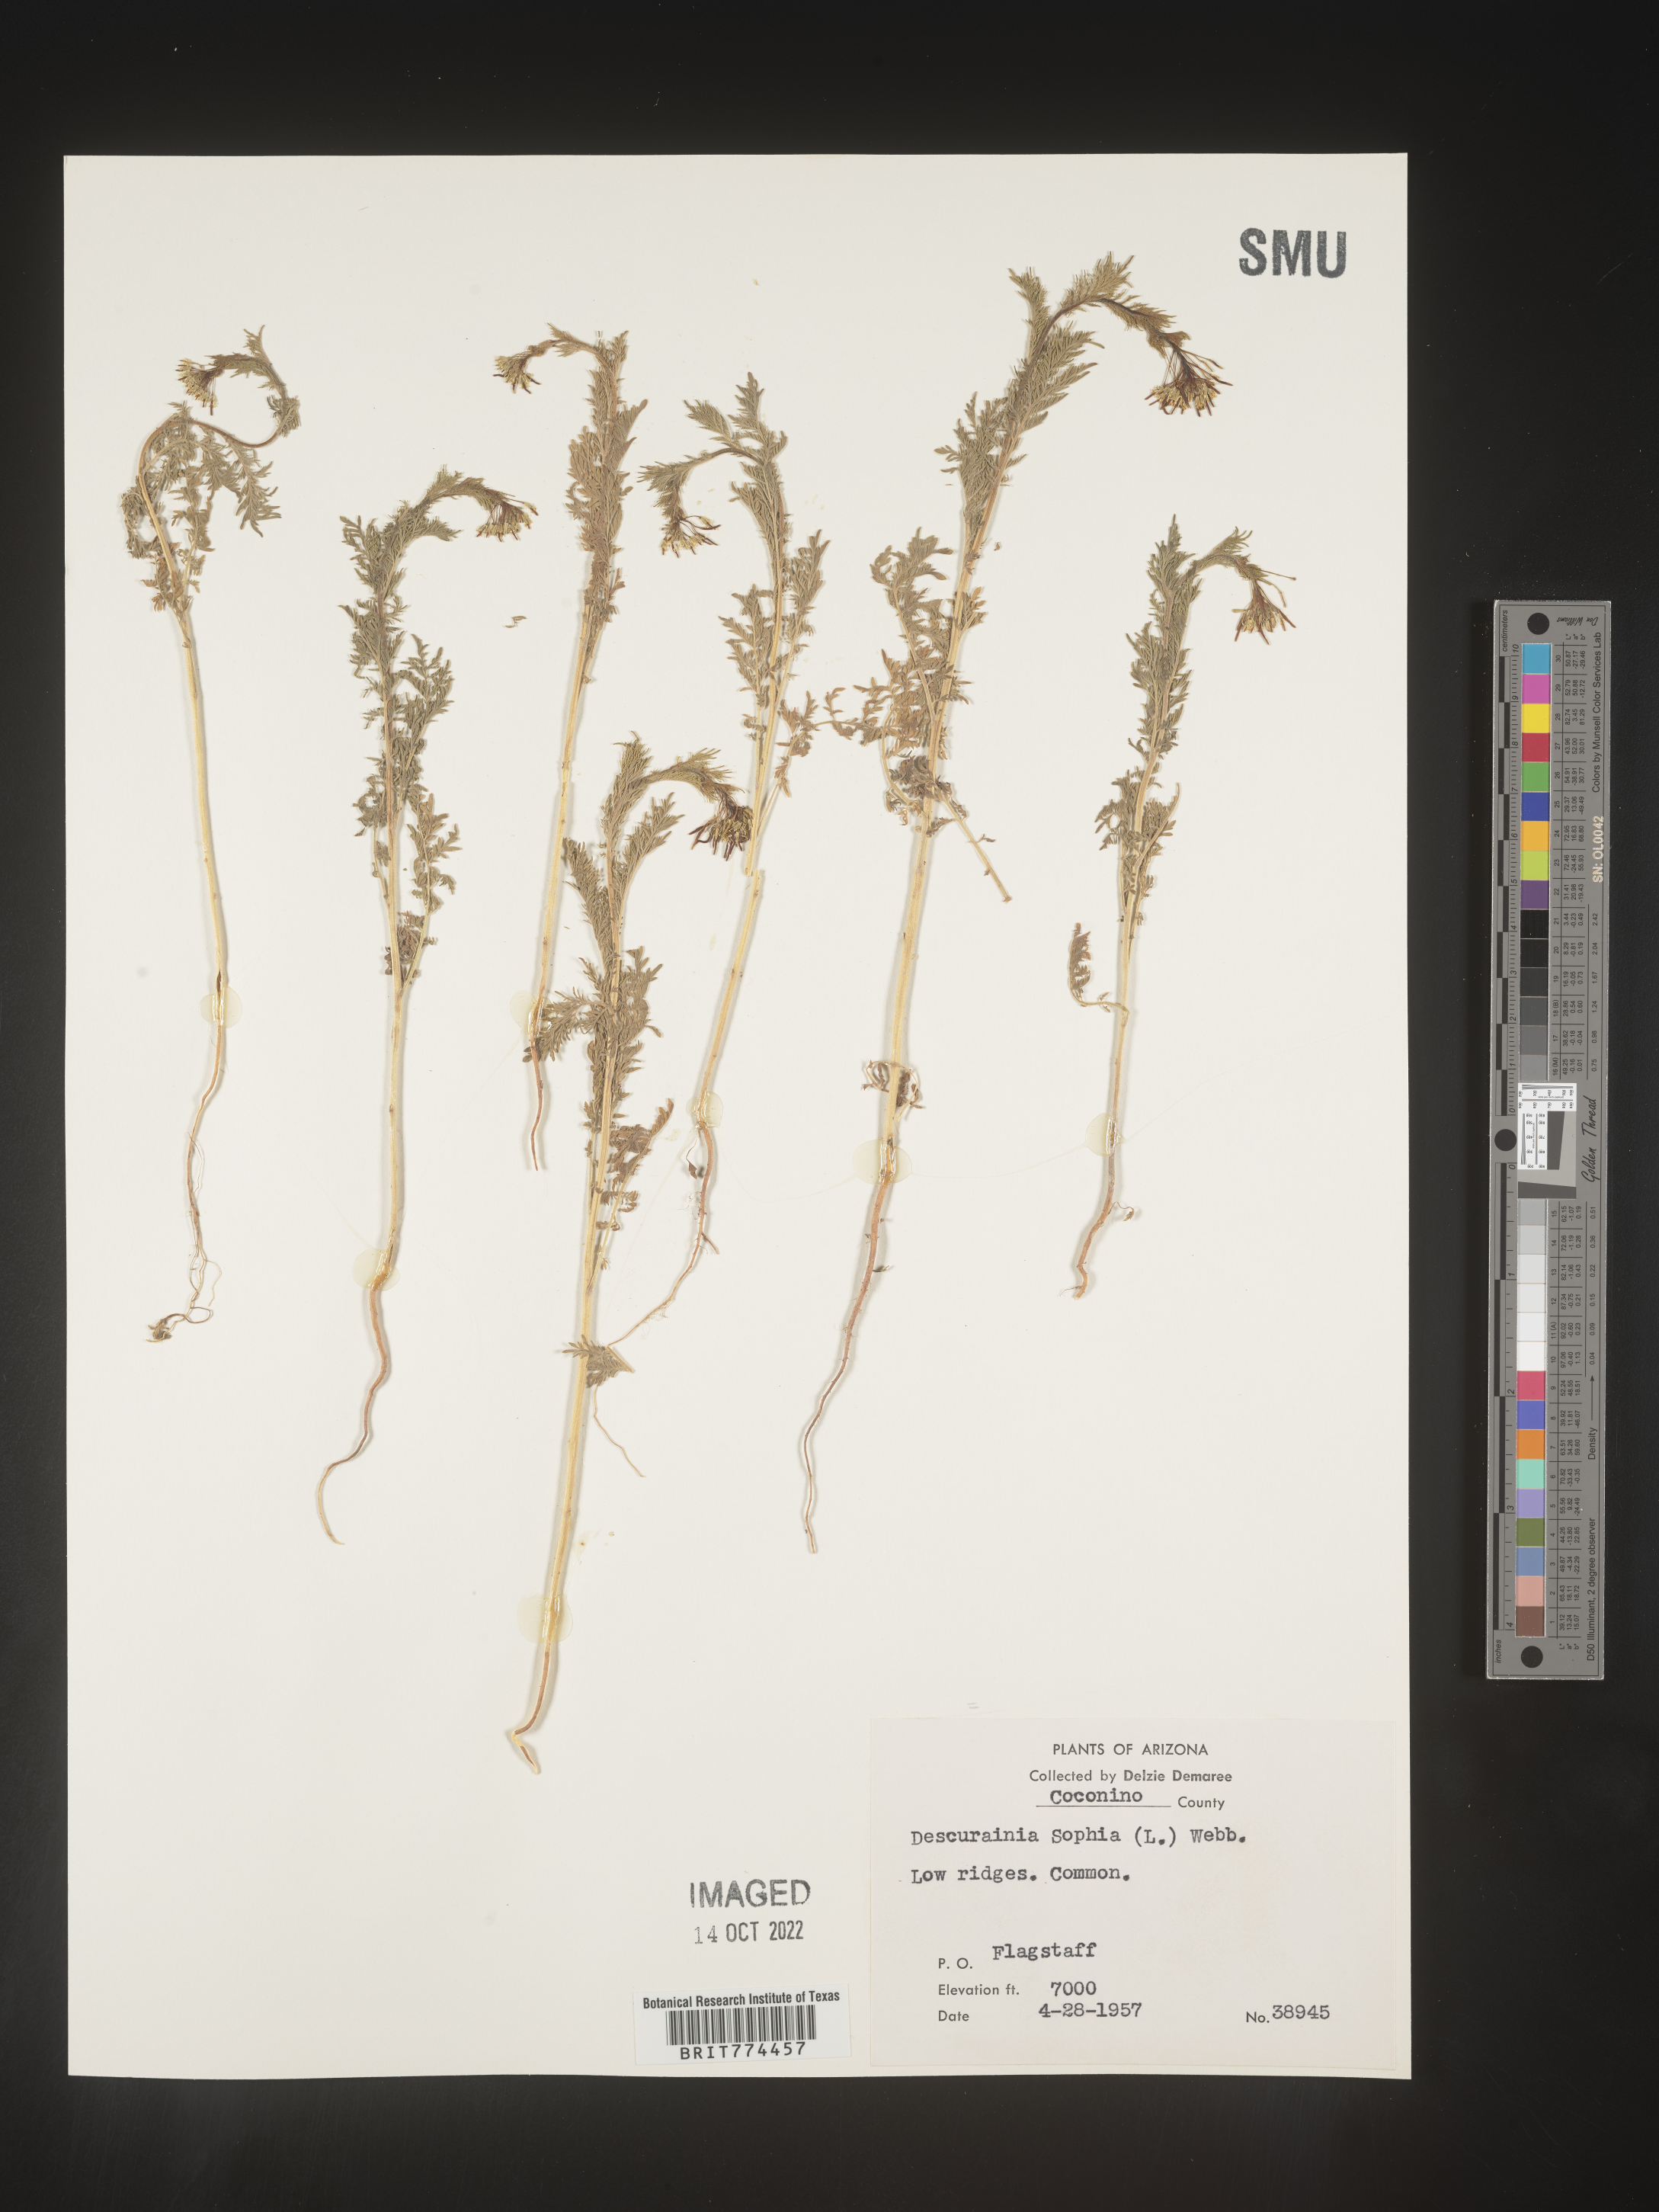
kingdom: Plantae
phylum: Tracheophyta
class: Magnoliopsida
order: Brassicales
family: Brassicaceae
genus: Descurainia
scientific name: Descurainia sophia
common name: Flixweed
